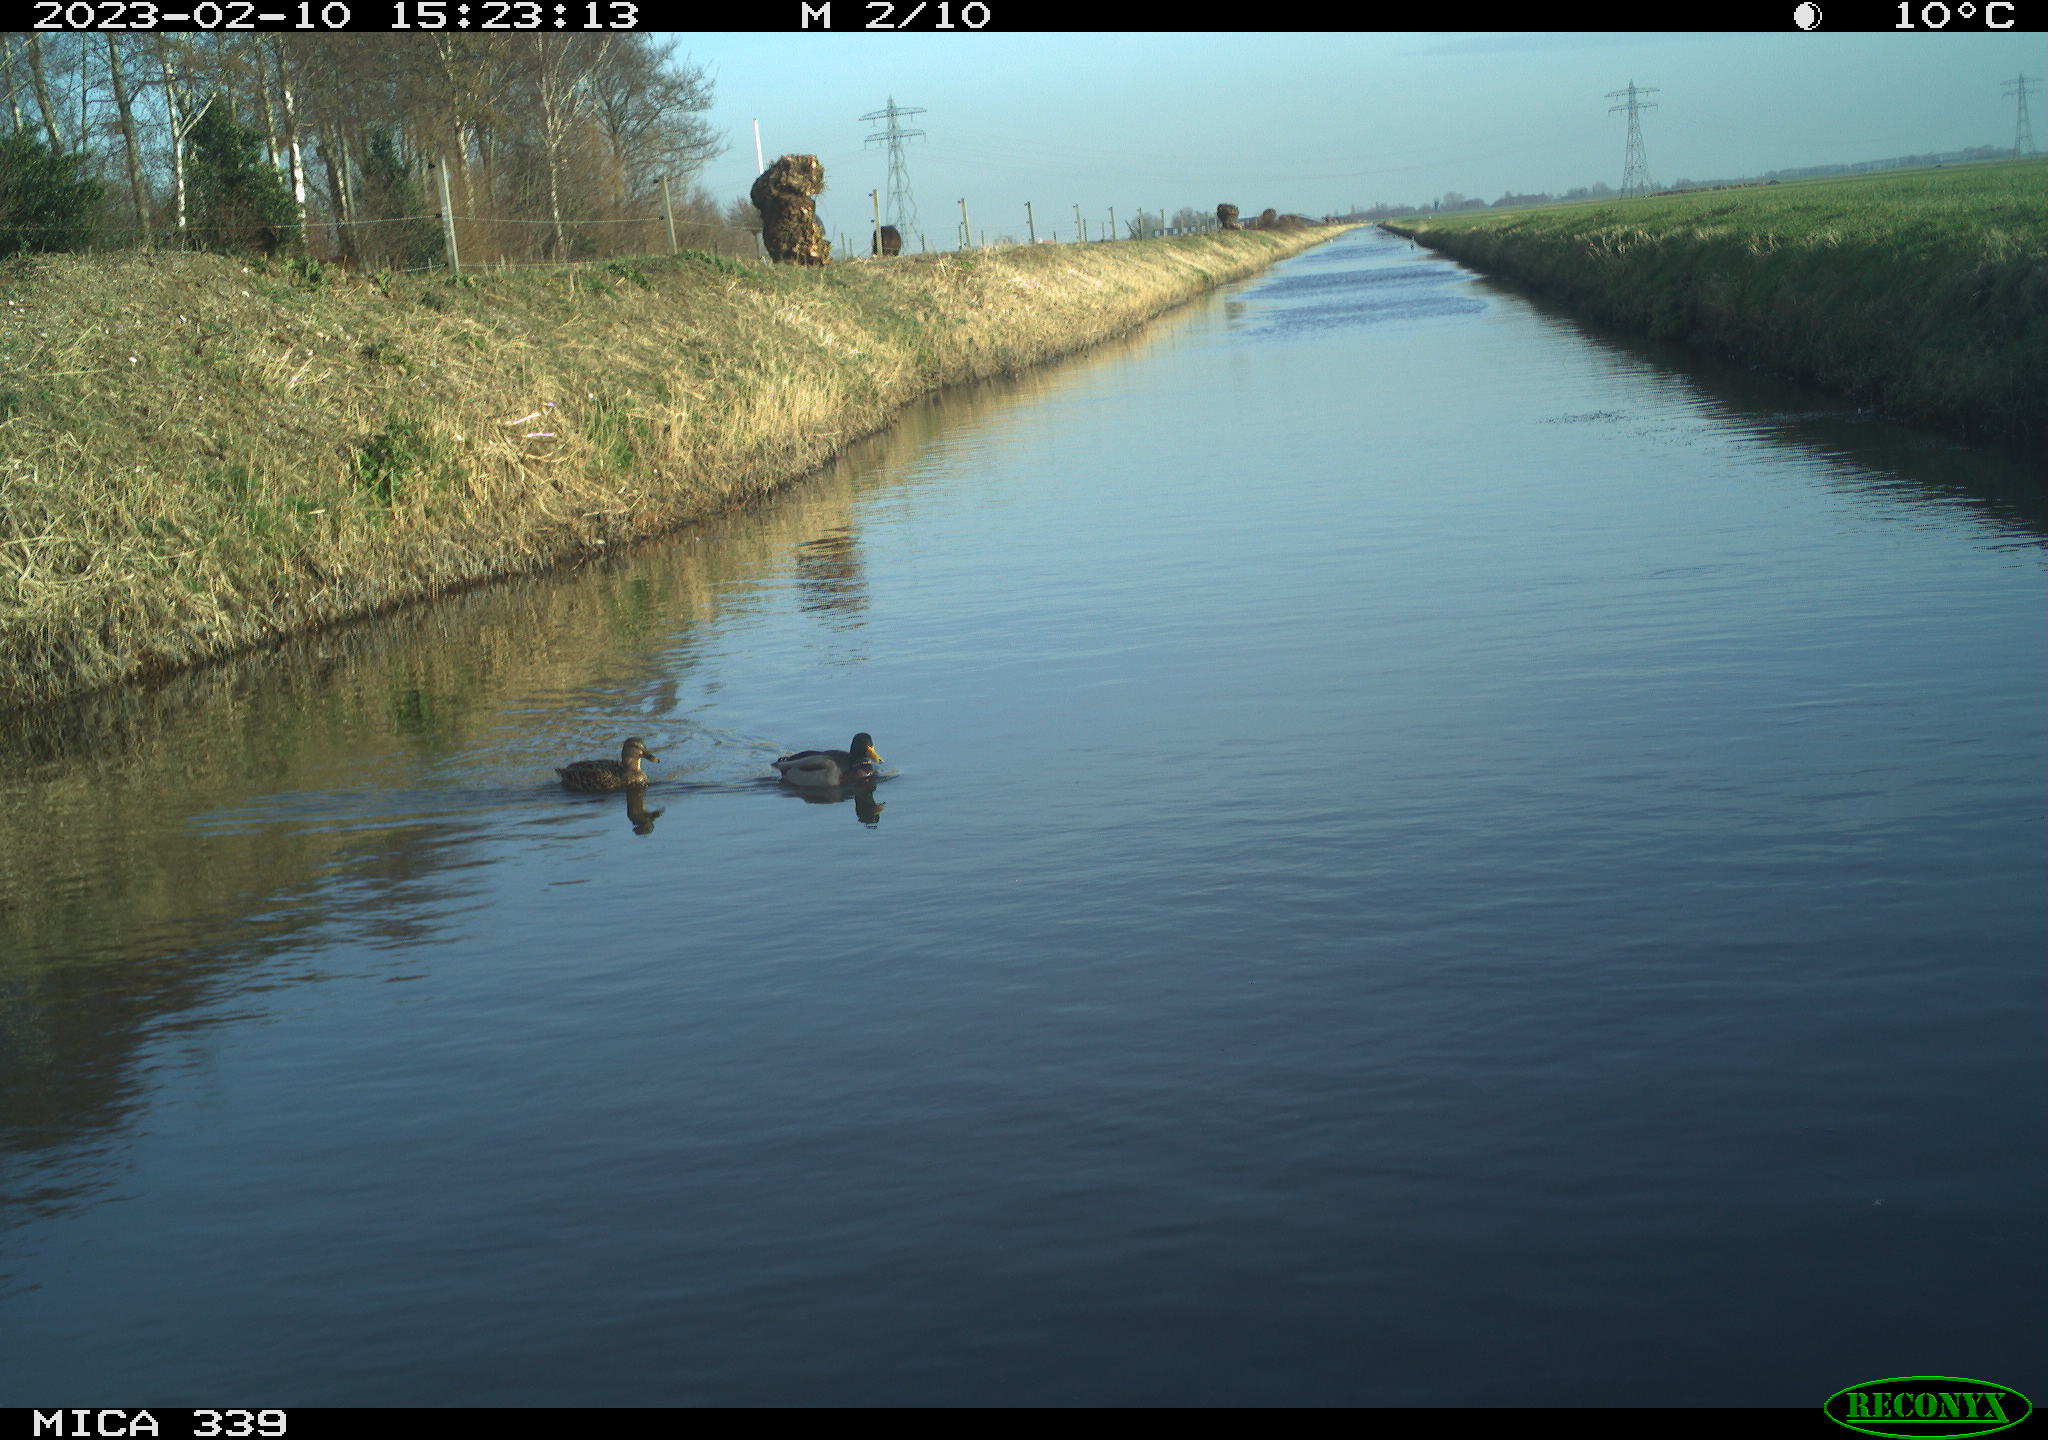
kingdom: Animalia
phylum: Chordata
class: Aves
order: Anseriformes
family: Anatidae
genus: Anas
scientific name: Anas
